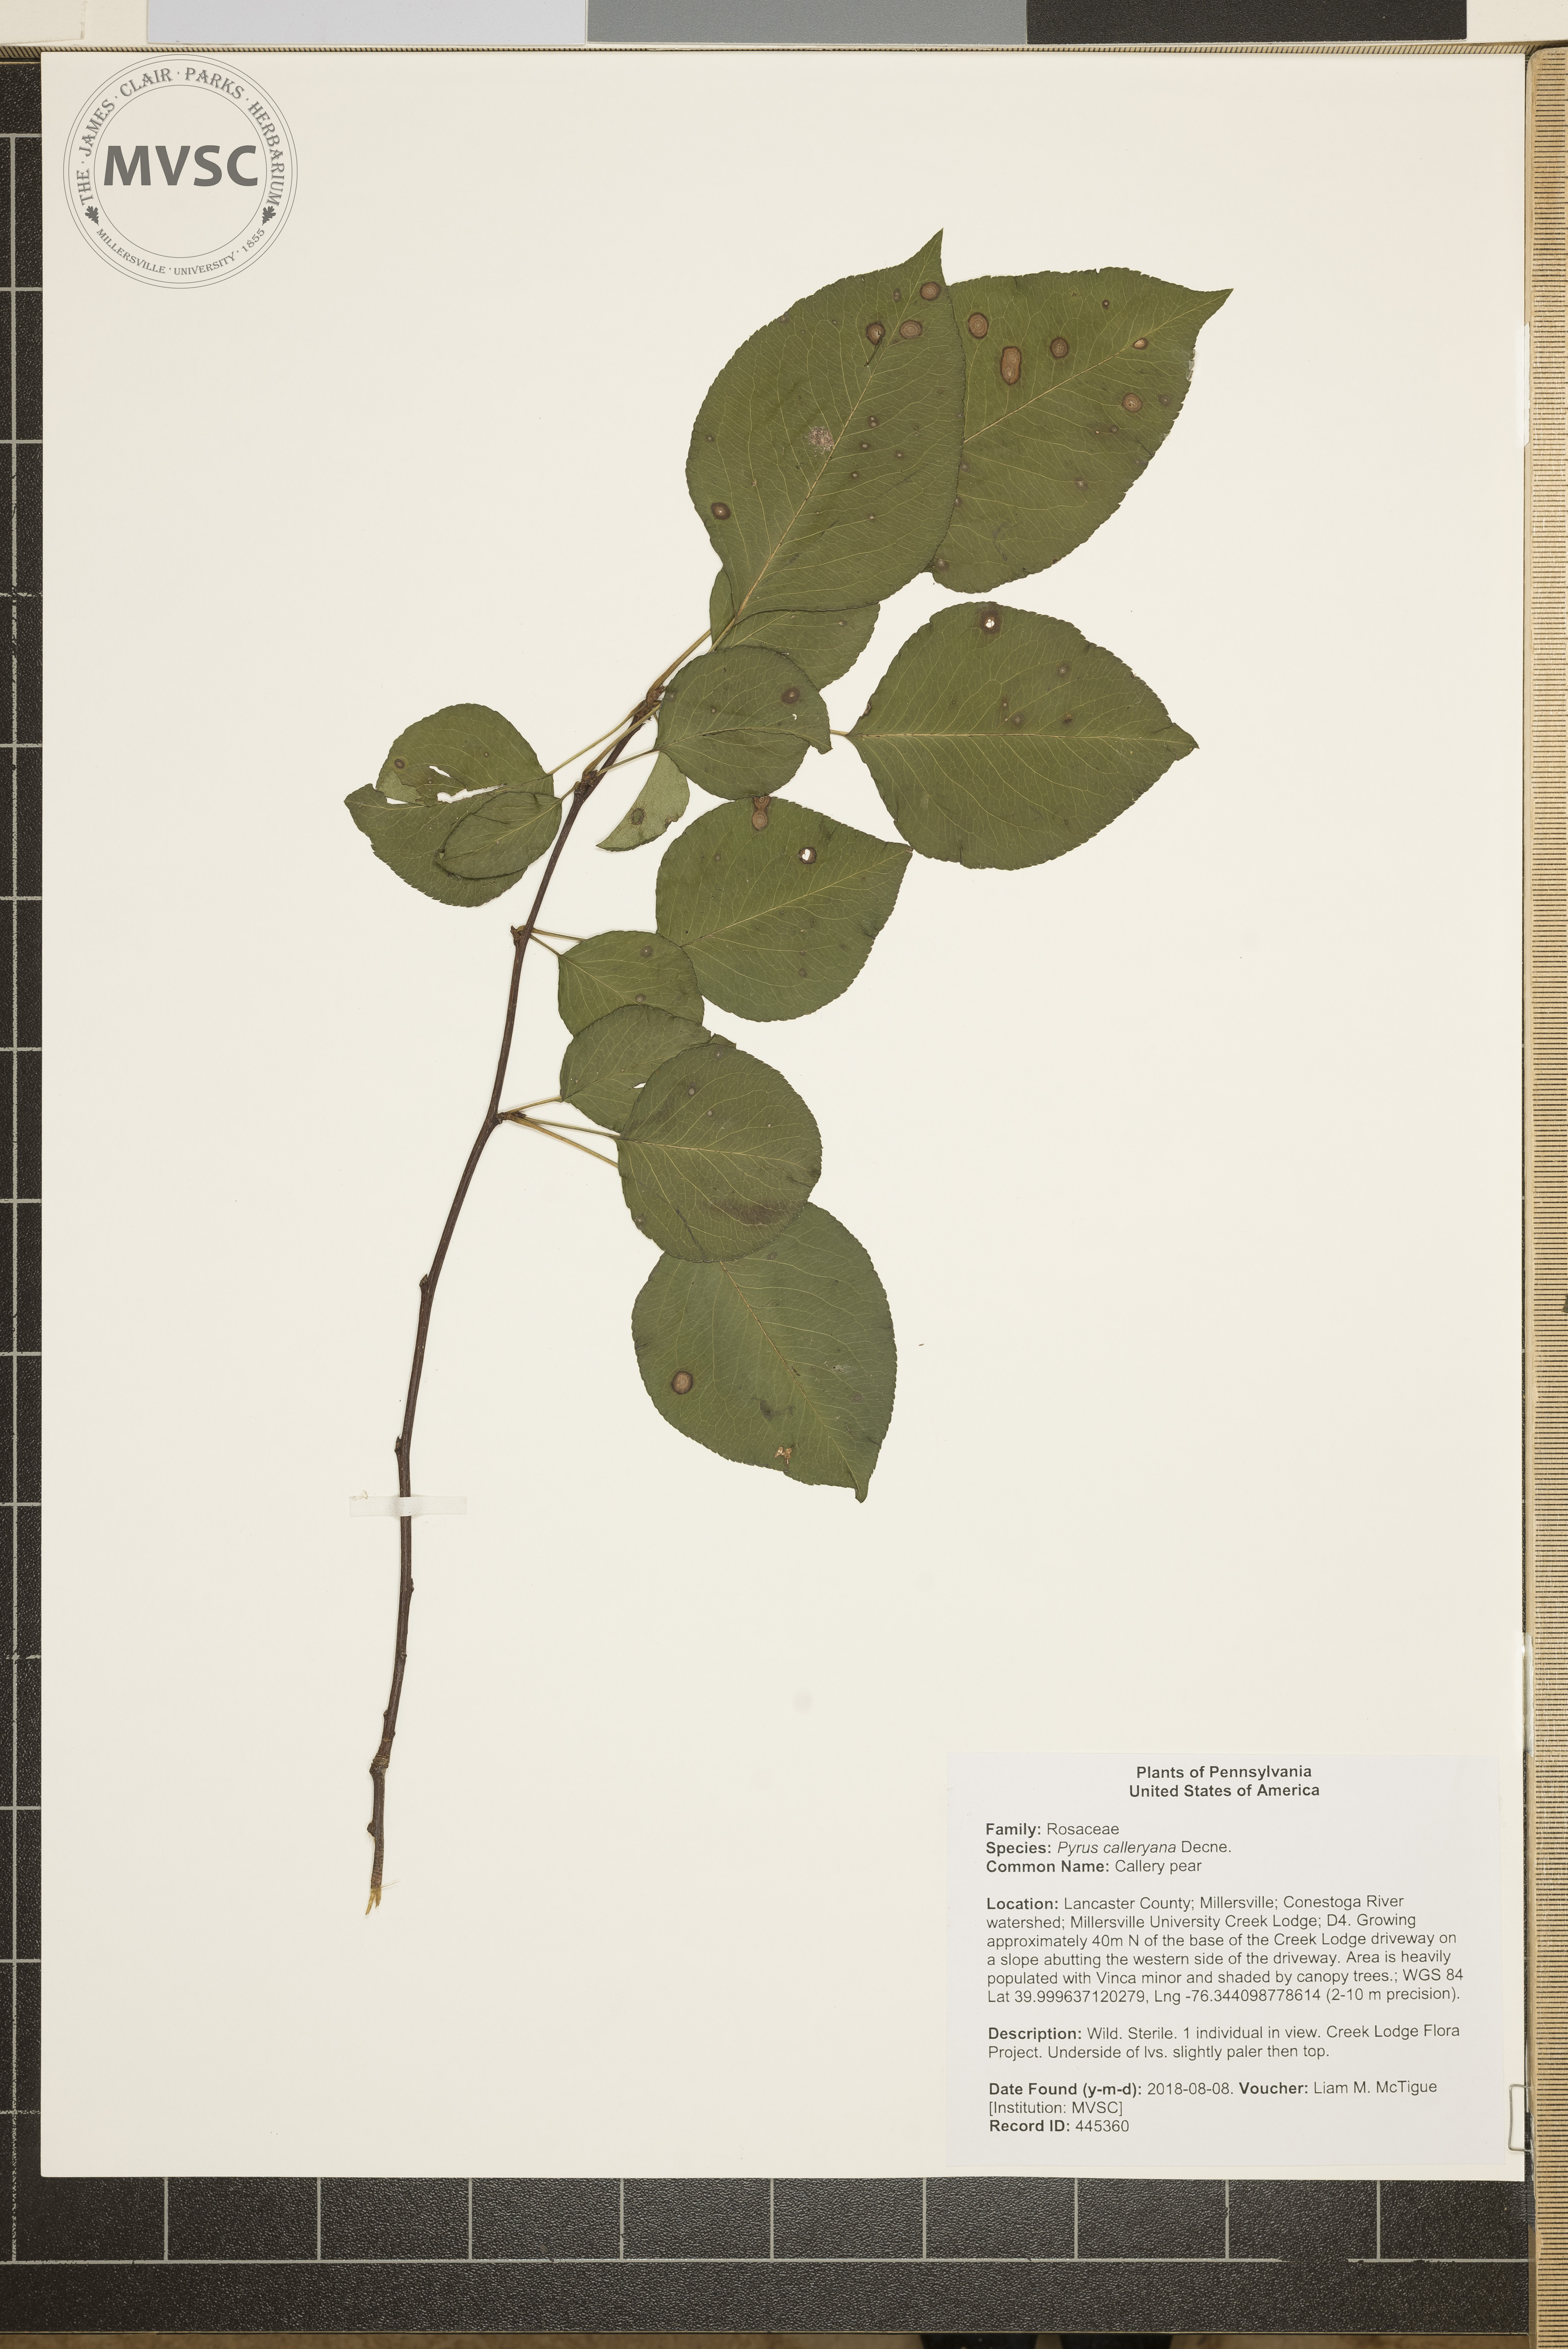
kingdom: Plantae
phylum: Tracheophyta
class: Magnoliopsida
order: Rosales
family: Rosaceae
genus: Pyrus
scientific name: Pyrus calleryana
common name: Callery pear
